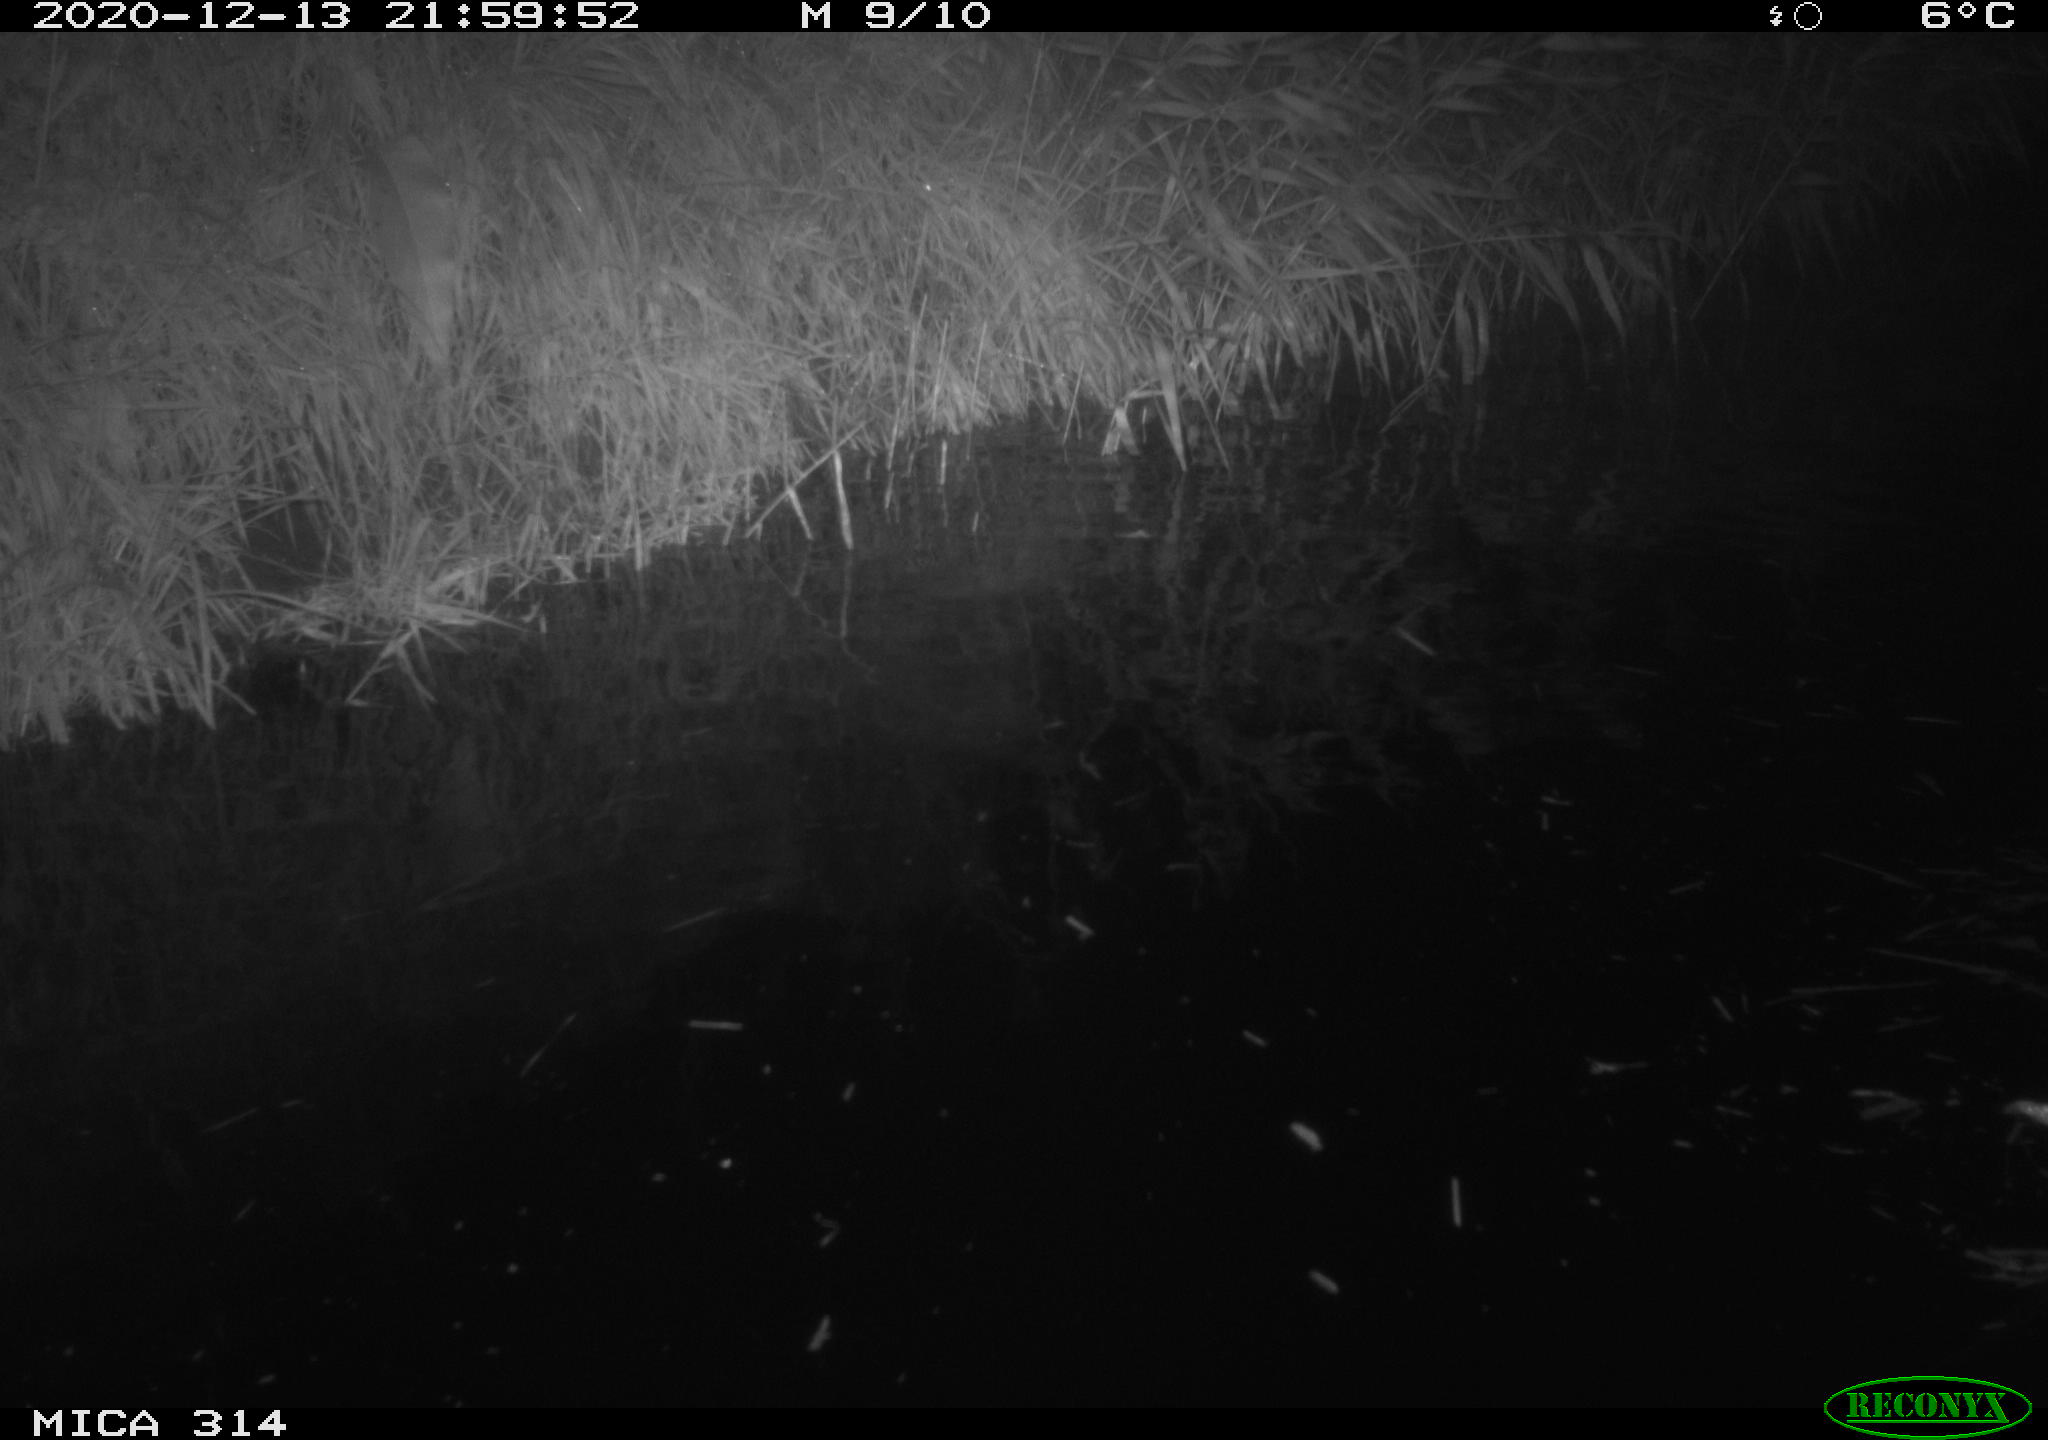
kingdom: Animalia
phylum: Chordata
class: Mammalia
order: Rodentia
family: Muridae
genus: Rattus
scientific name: Rattus norvegicus
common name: Brown rat
